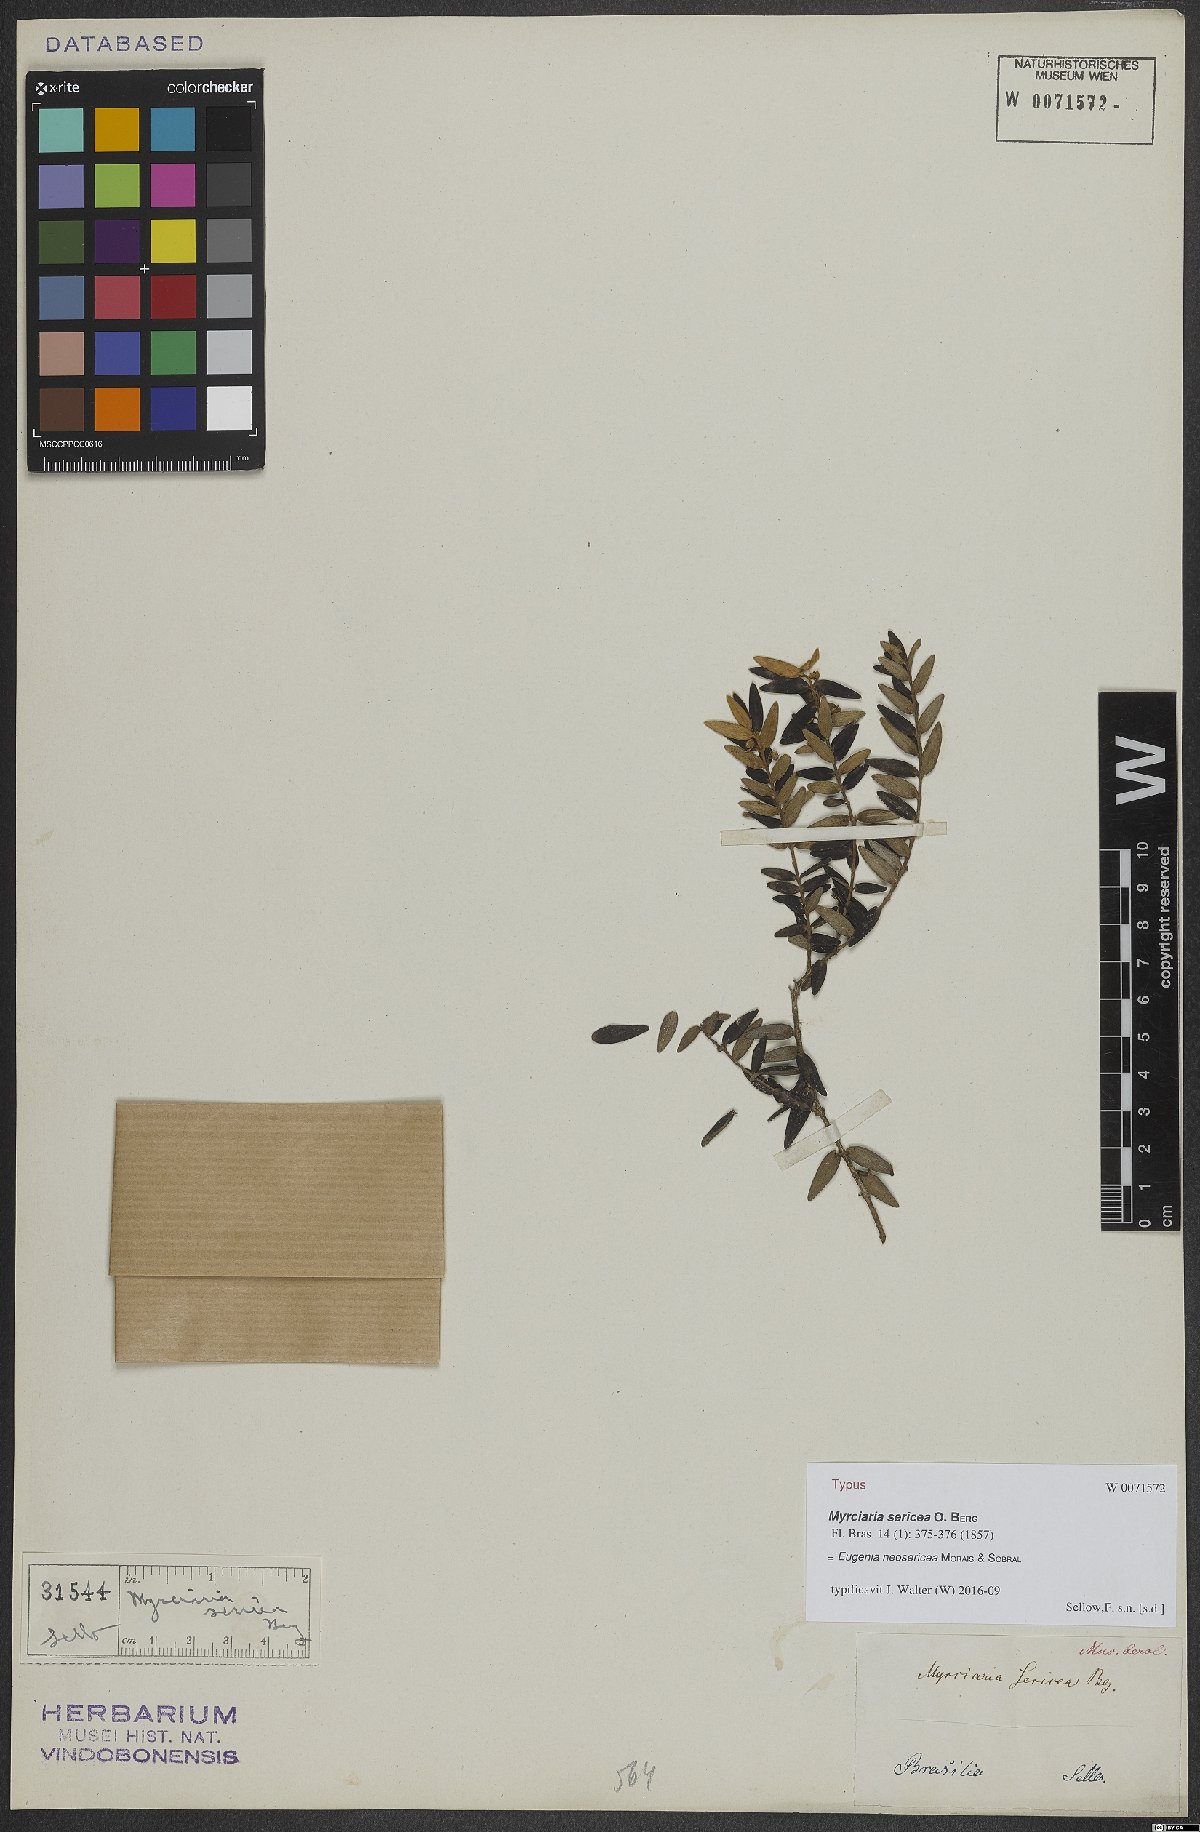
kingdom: Plantae
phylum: Tracheophyta
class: Magnoliopsida
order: Myrtales
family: Myrtaceae
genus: Myrcia
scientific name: Myrcia neosericea
